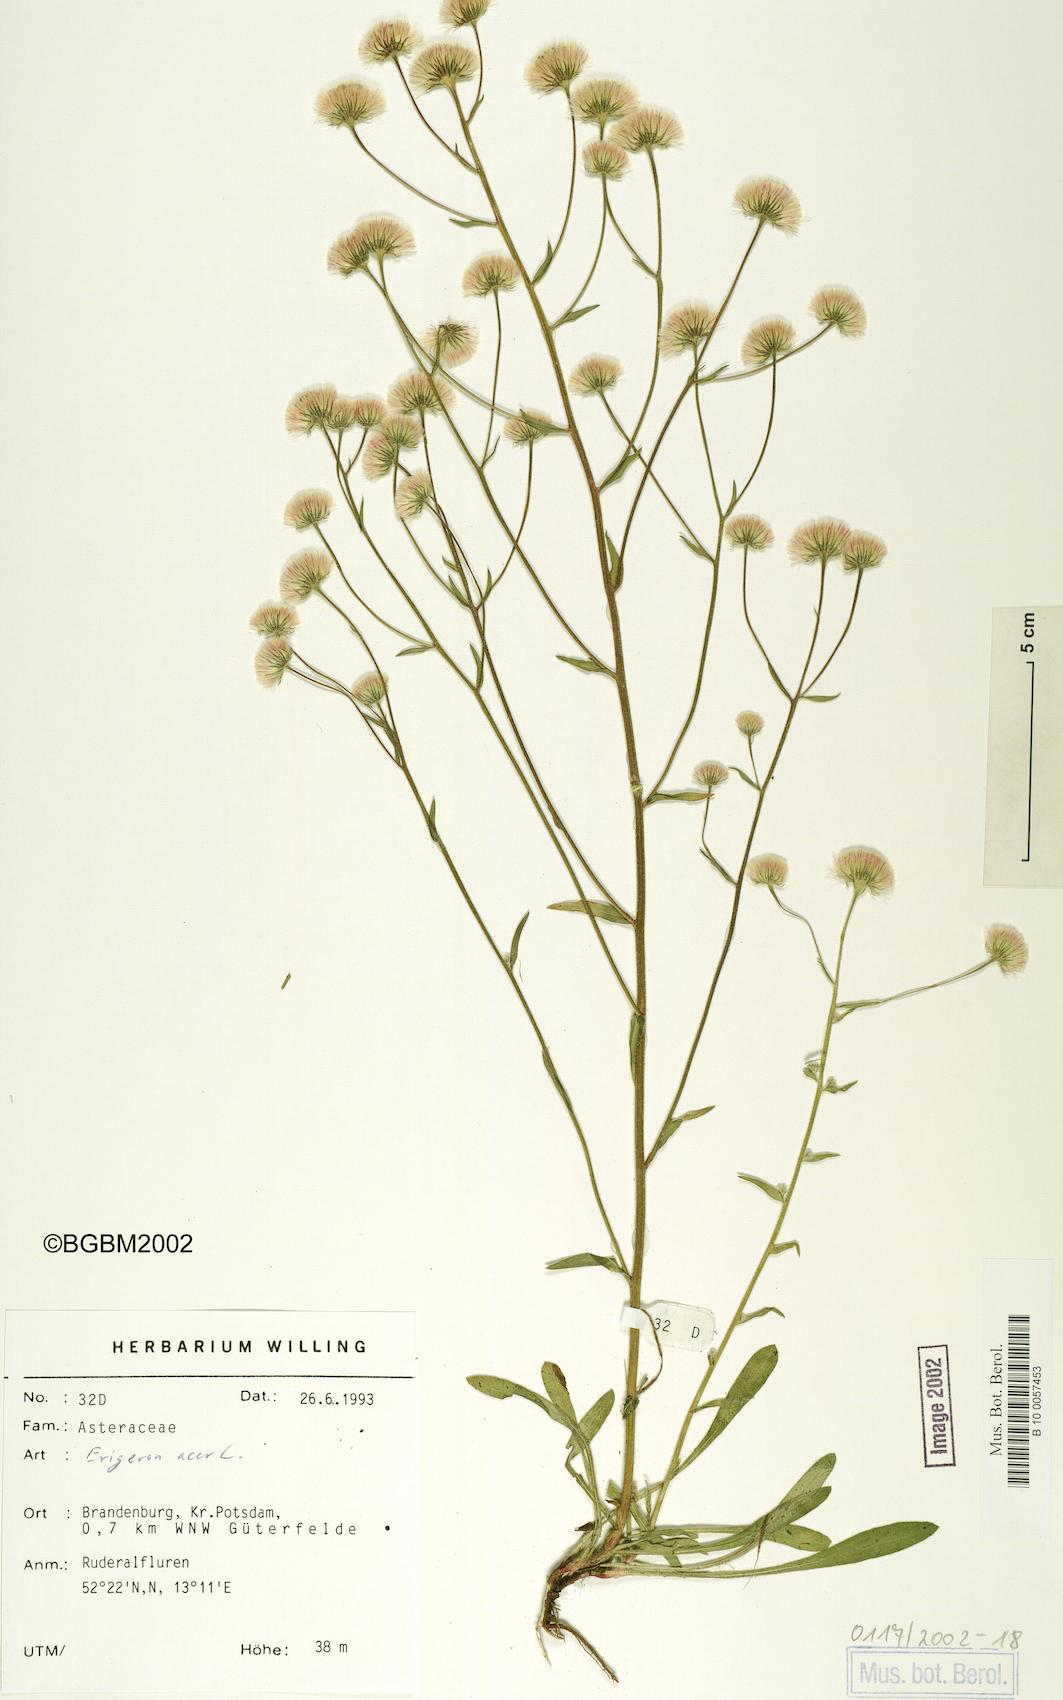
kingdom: Plantae
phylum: Tracheophyta
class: Magnoliopsida
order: Asterales
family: Asteraceae
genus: Erigeron
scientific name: Erigeron acris
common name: Blue fleabane
